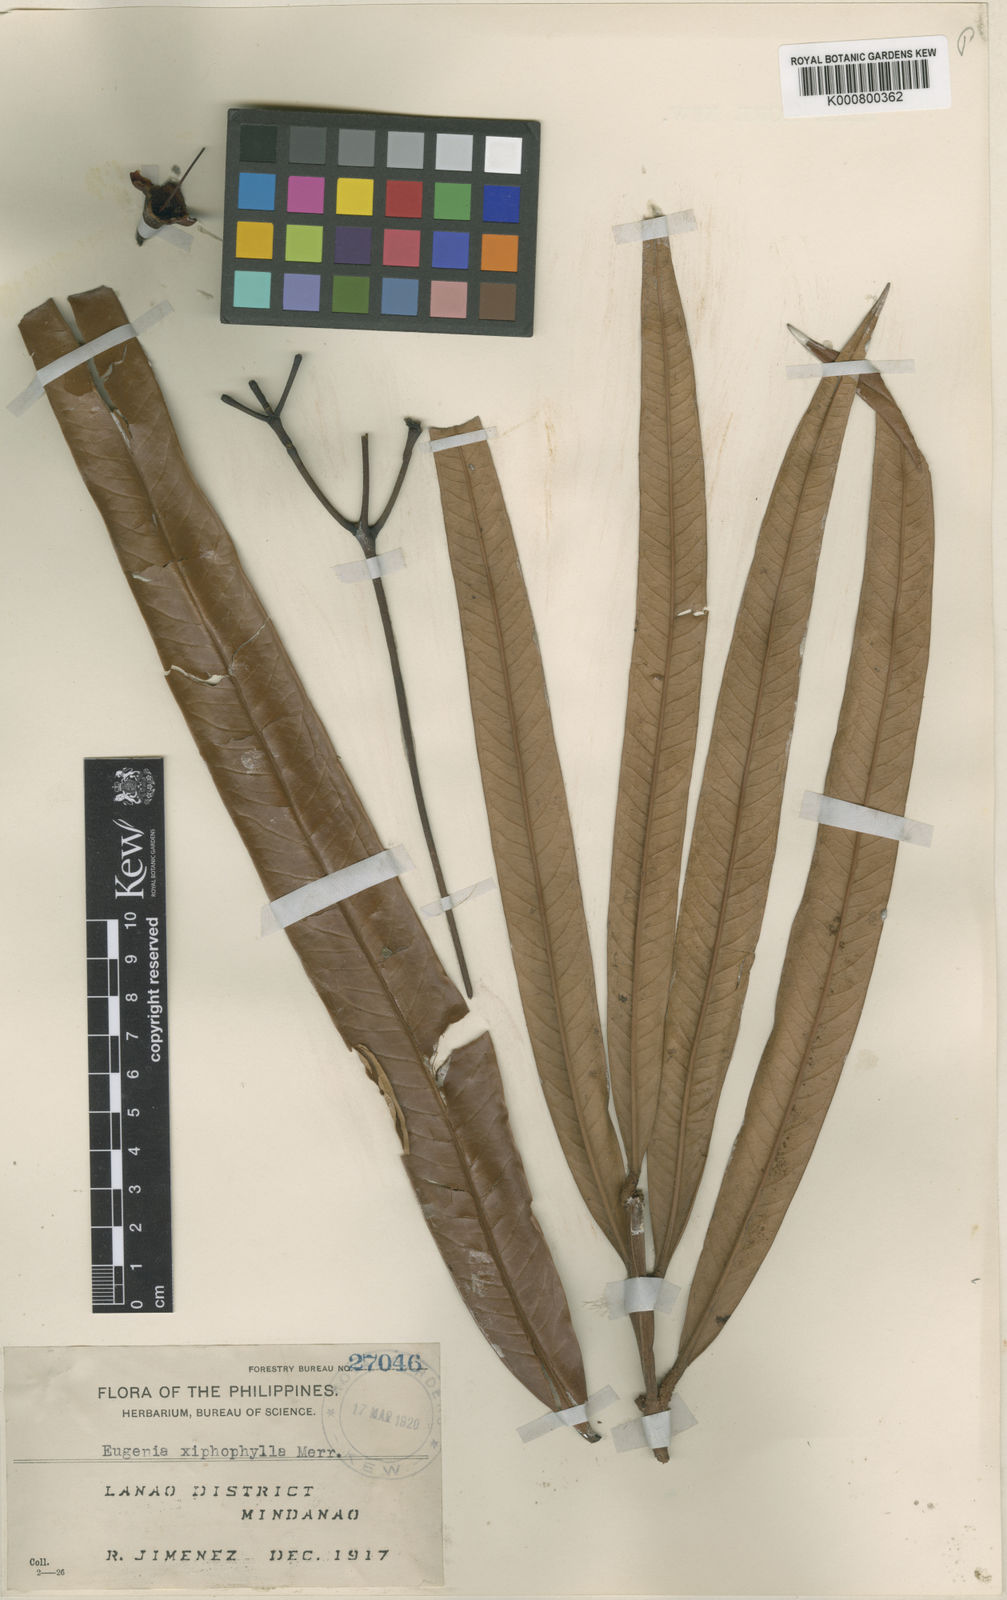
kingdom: Plantae
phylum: Tracheophyta
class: Magnoliopsida
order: Myrtales
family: Myrtaceae
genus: Syzygium
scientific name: Syzygium xiphophyllum
